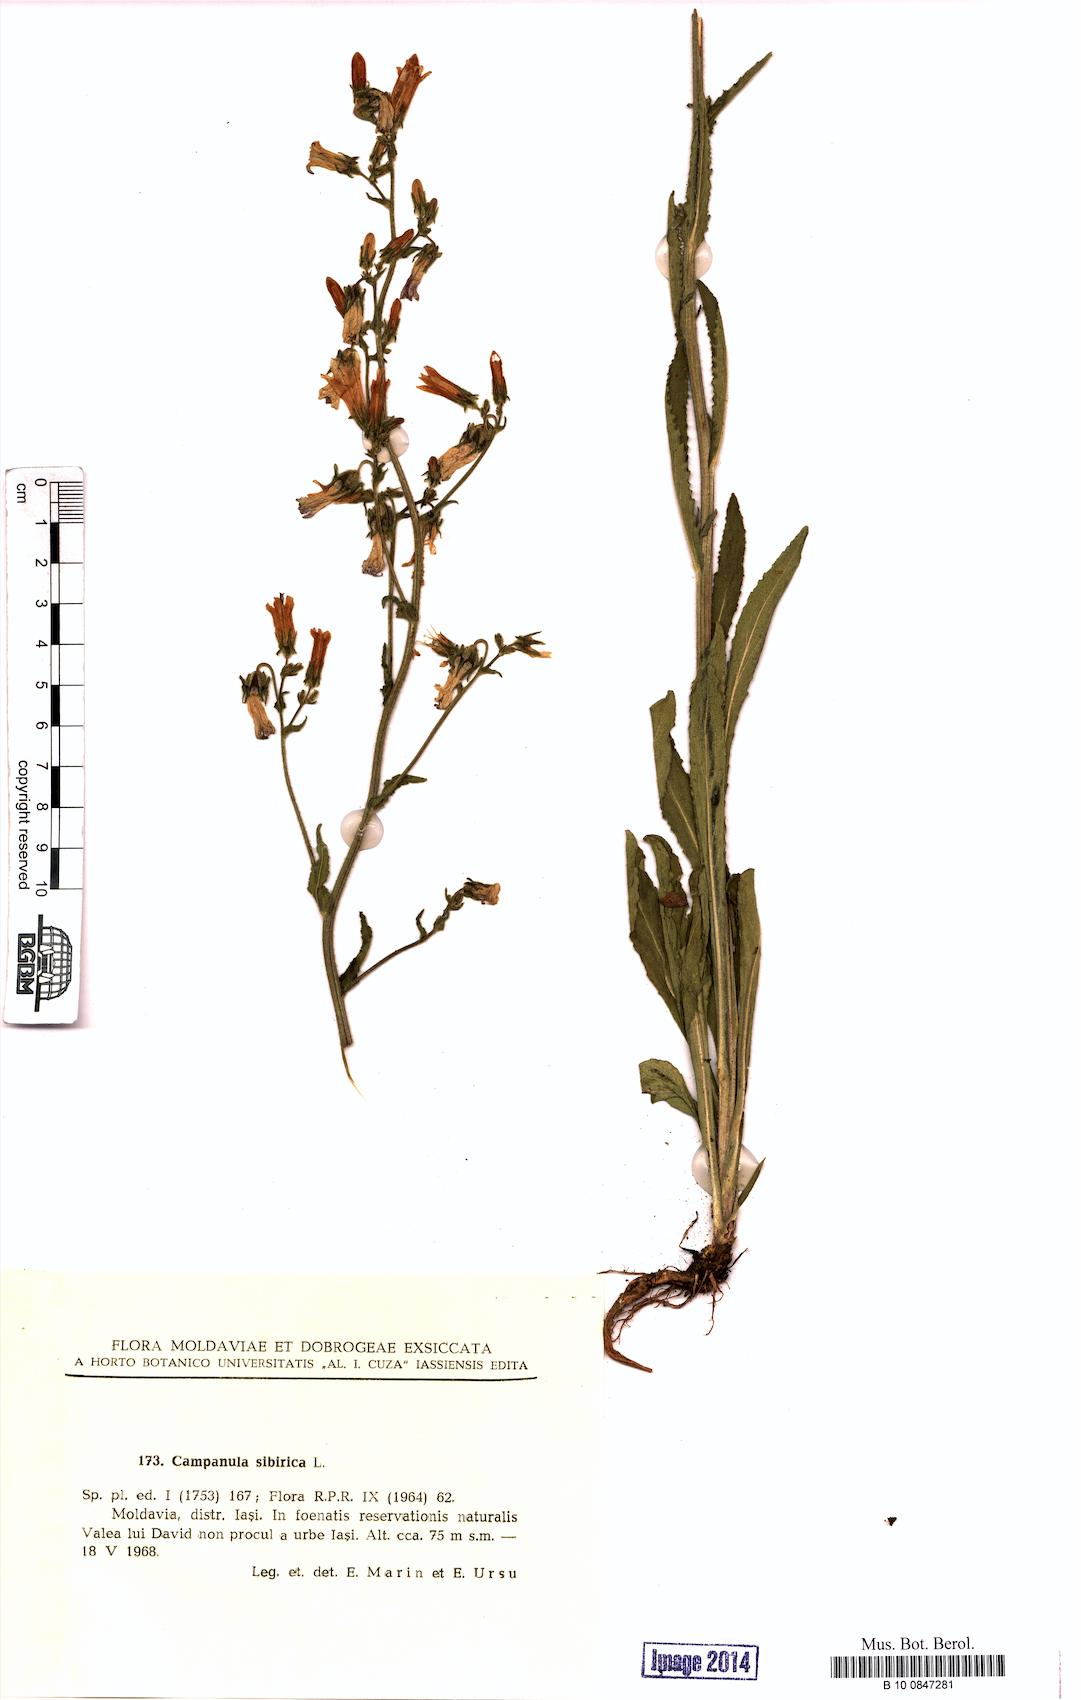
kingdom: Plantae
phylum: Tracheophyta
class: Magnoliopsida
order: Asterales
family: Campanulaceae
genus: Campanula
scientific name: Campanula sibirica
